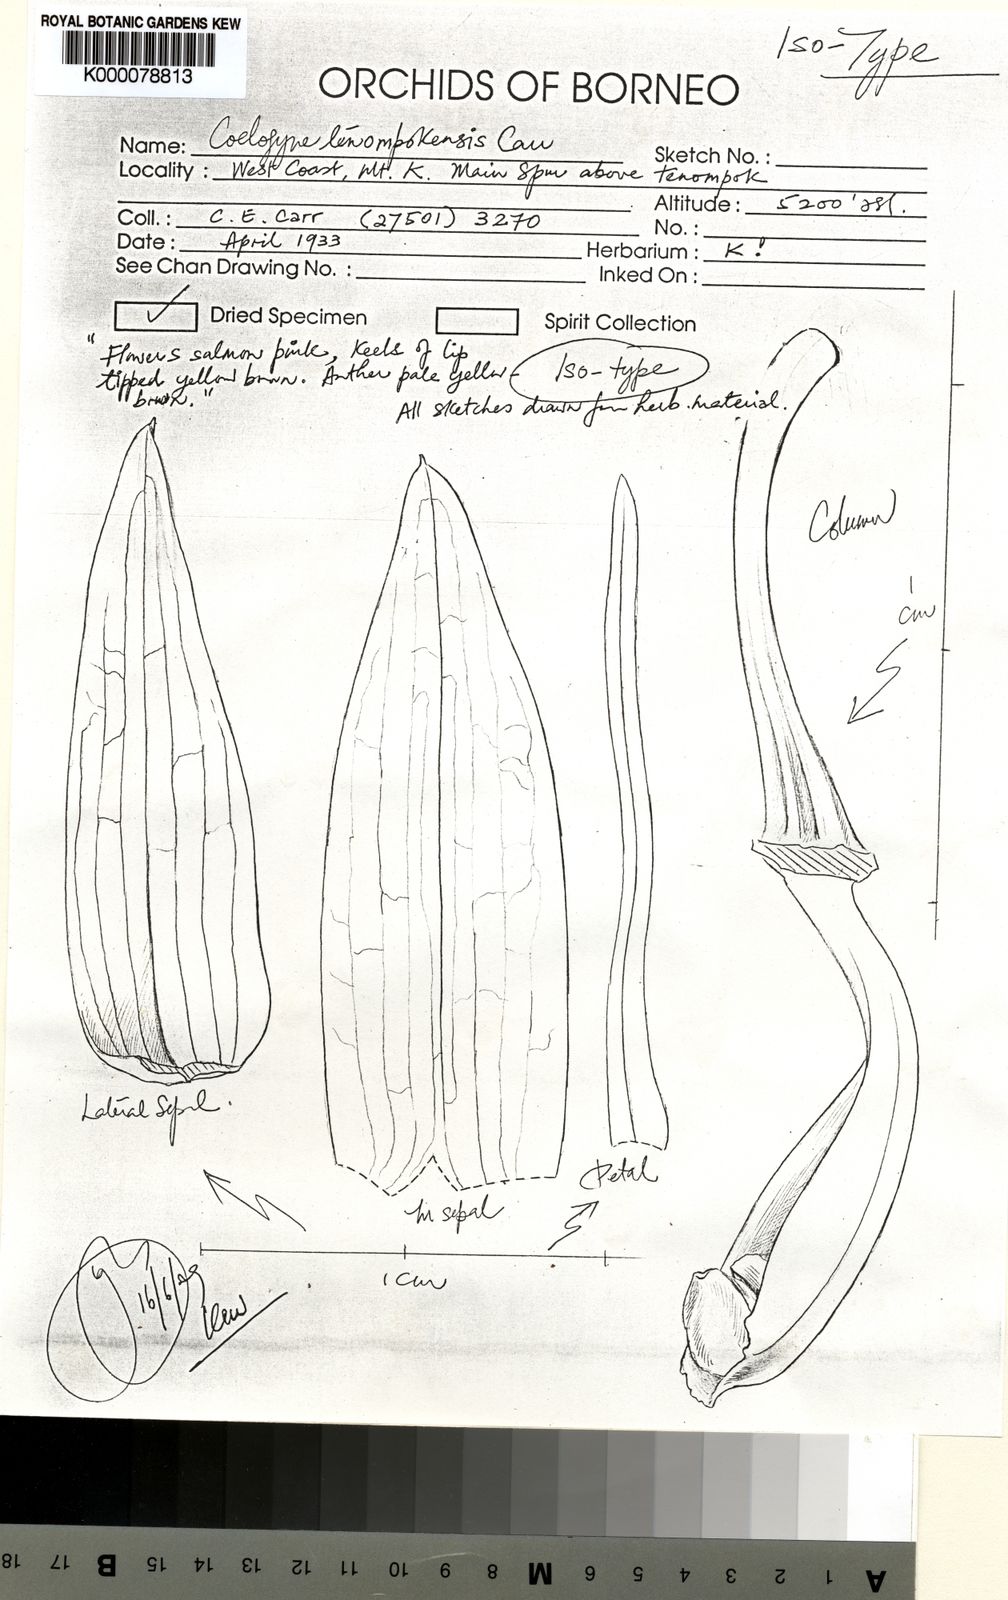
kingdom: Plantae
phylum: Tracheophyta
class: Liliopsida
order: Asparagales
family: Orchidaceae
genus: Coelogyne
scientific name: Coelogyne tenompokensis
